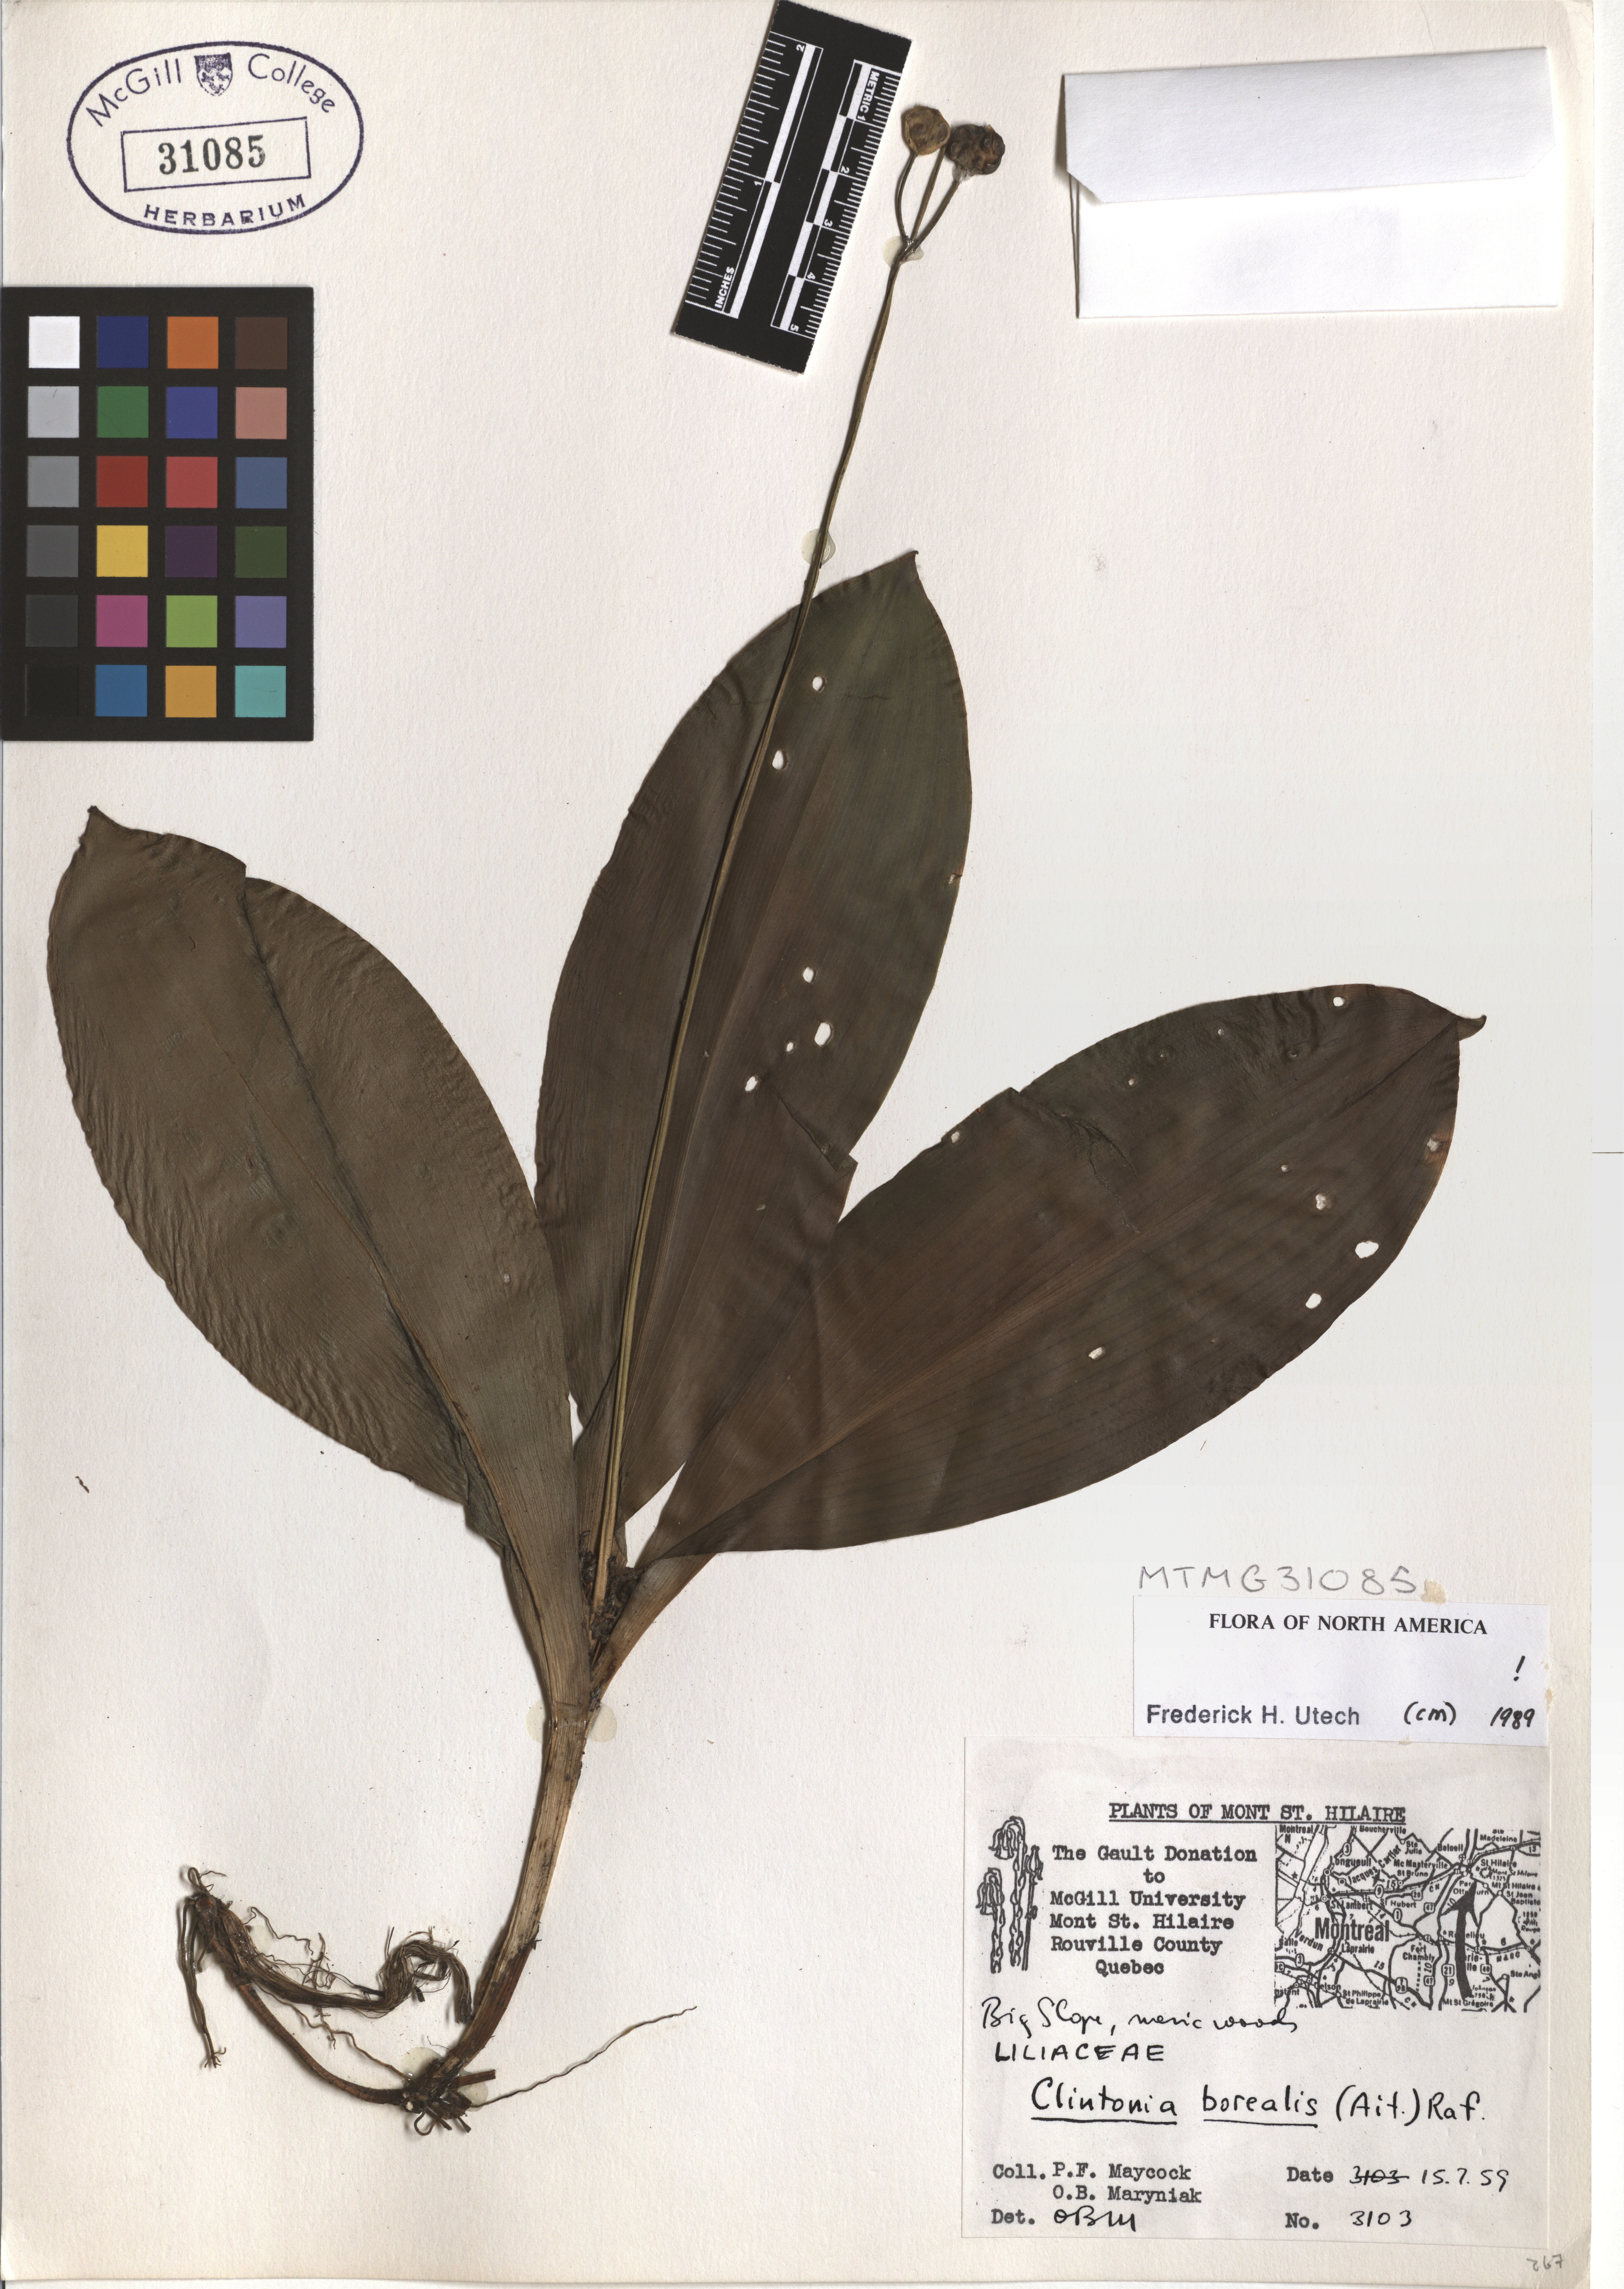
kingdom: Plantae
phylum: Tracheophyta
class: Liliopsida
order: Liliales
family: Liliaceae
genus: Clintonia
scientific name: Clintonia borealis
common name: Yellow clintonia
